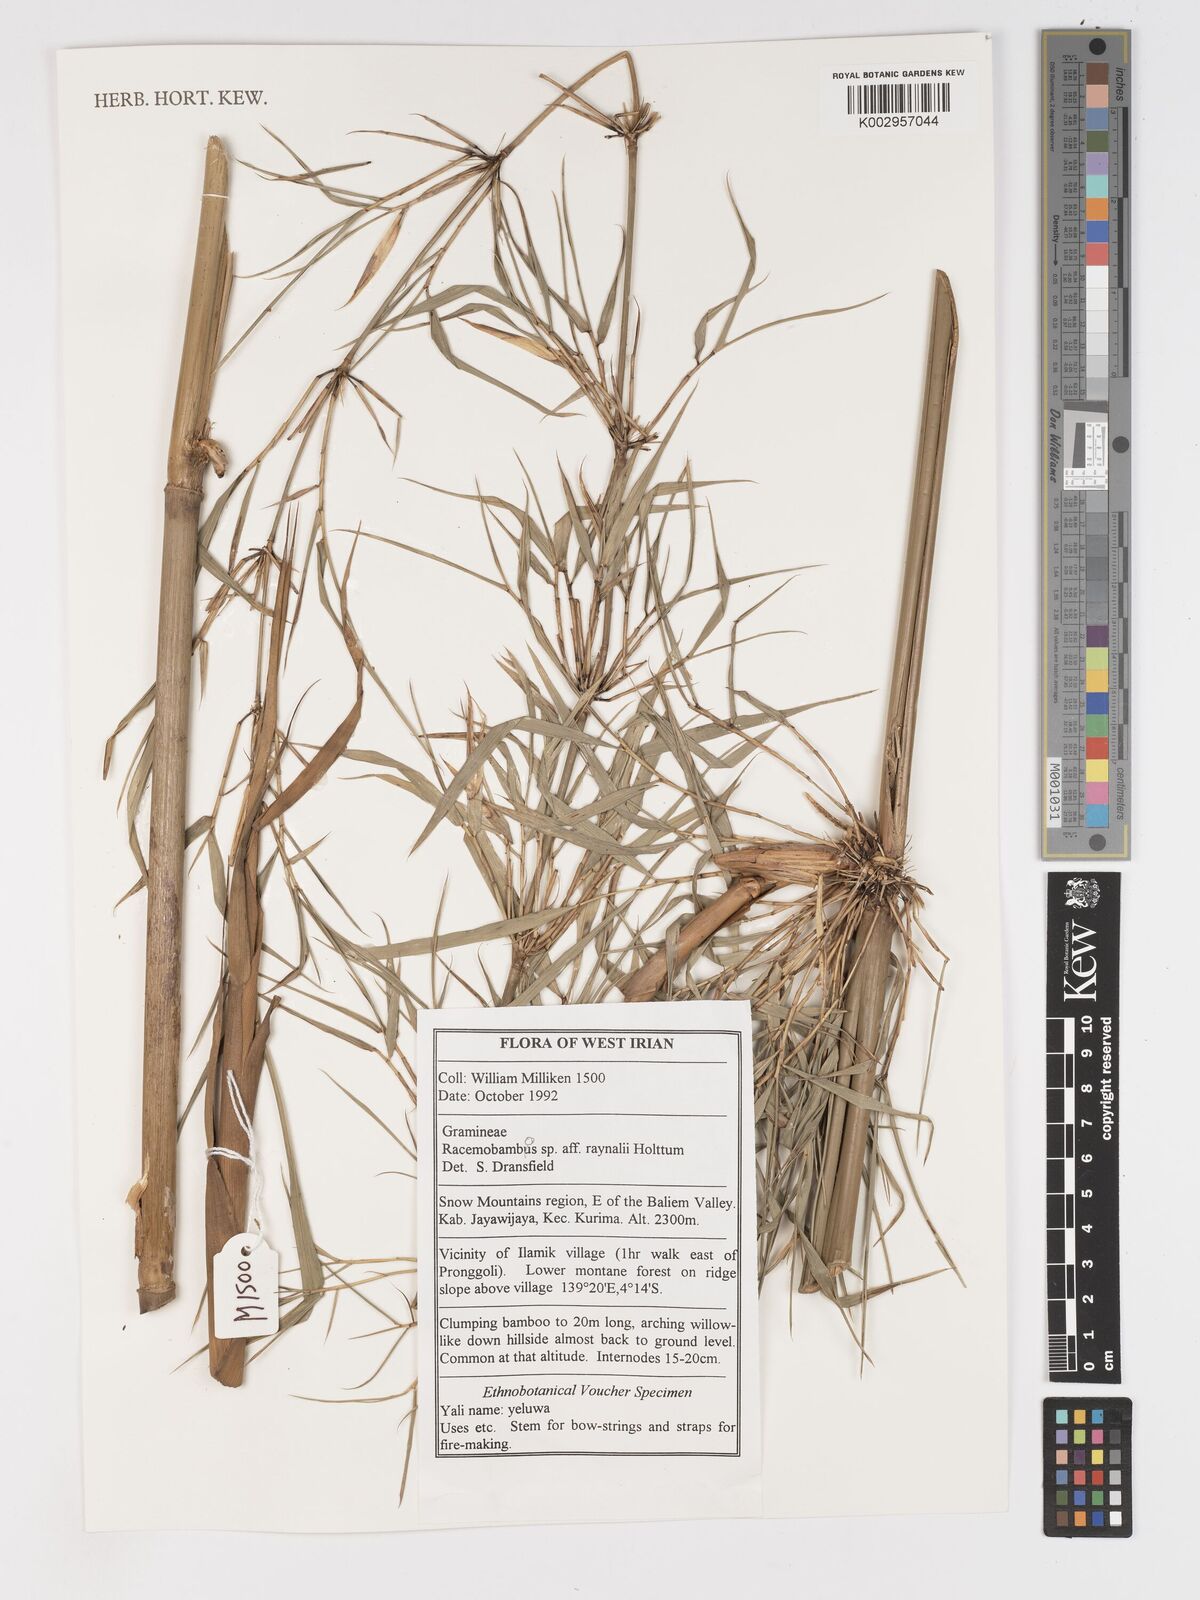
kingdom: Plantae
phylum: Tracheophyta
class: Liliopsida
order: Poales
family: Poaceae
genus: Racemobambos
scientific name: Racemobambos raynalii
